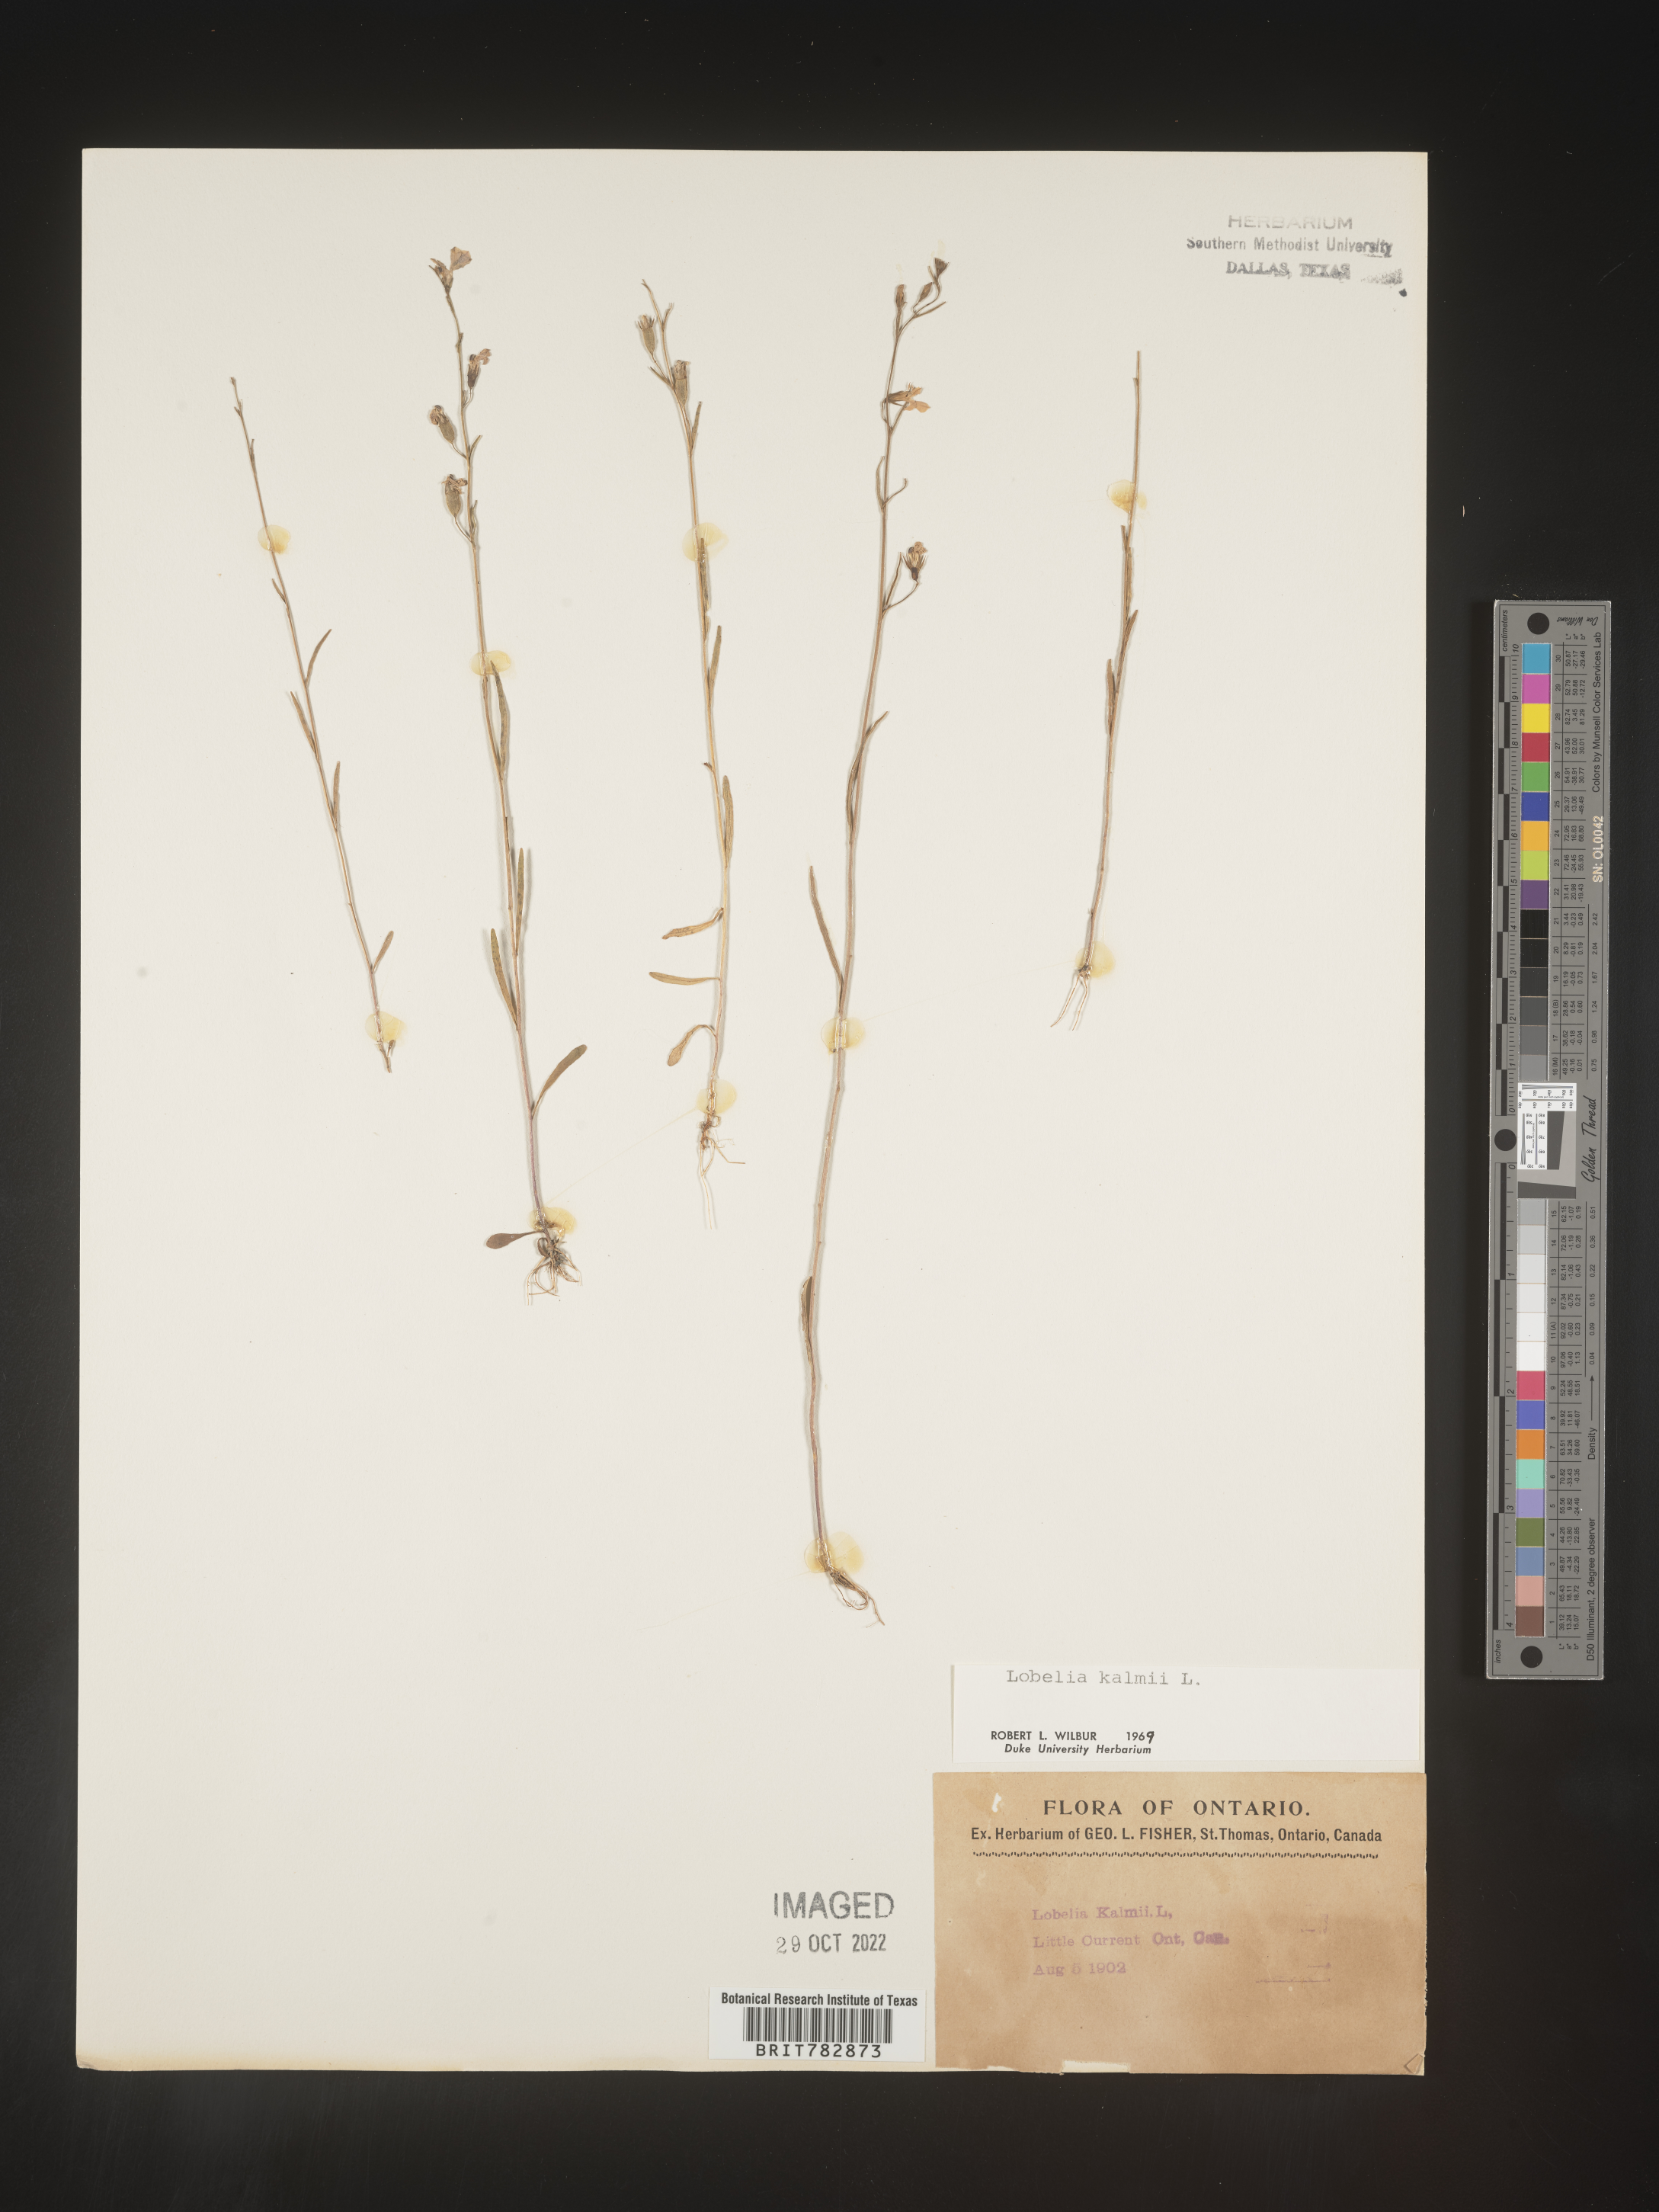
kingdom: Plantae
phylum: Tracheophyta
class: Magnoliopsida
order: Asterales
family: Campanulaceae
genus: Lobelia
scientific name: Lobelia
